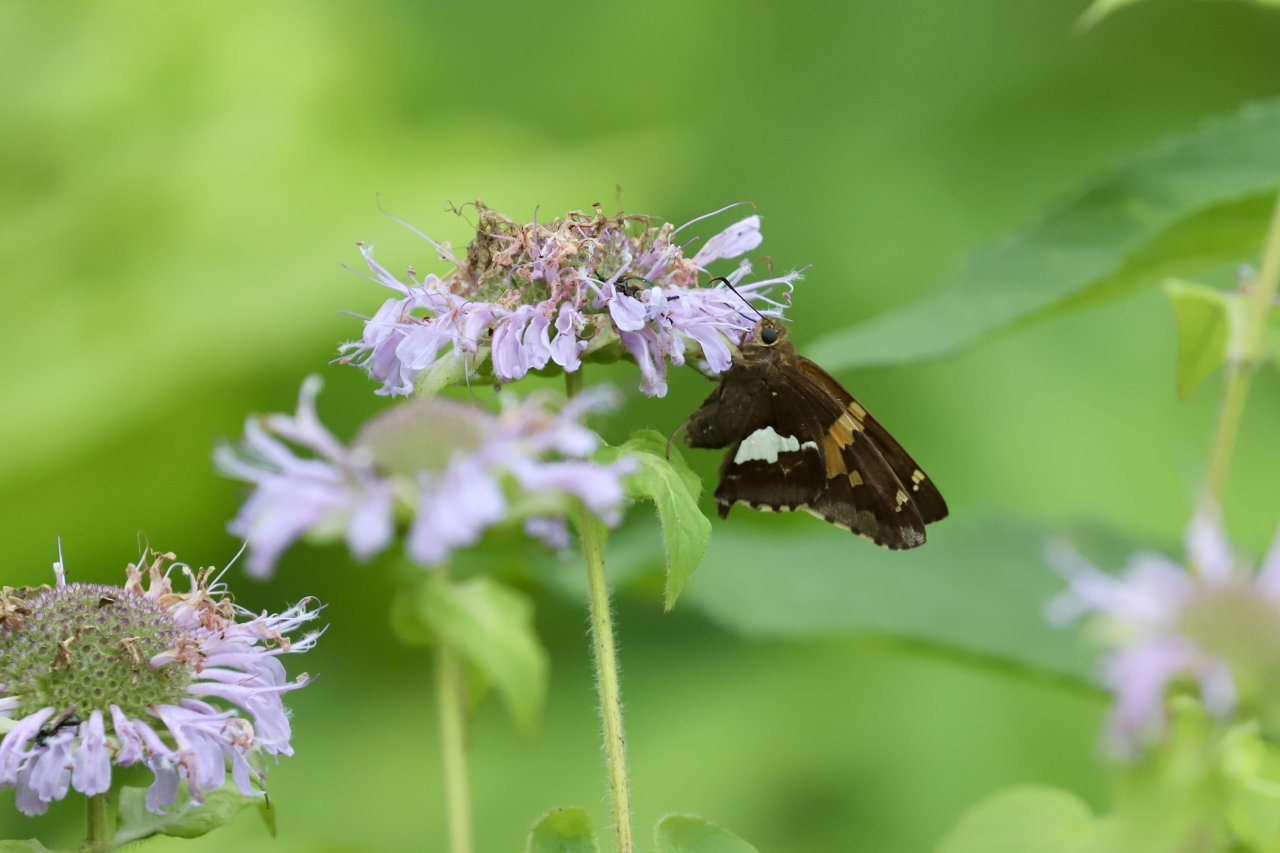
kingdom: Animalia
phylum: Arthropoda
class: Insecta
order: Lepidoptera
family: Hesperiidae
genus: Epargyreus
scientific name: Epargyreus clarus
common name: Silver-spotted Skipper
